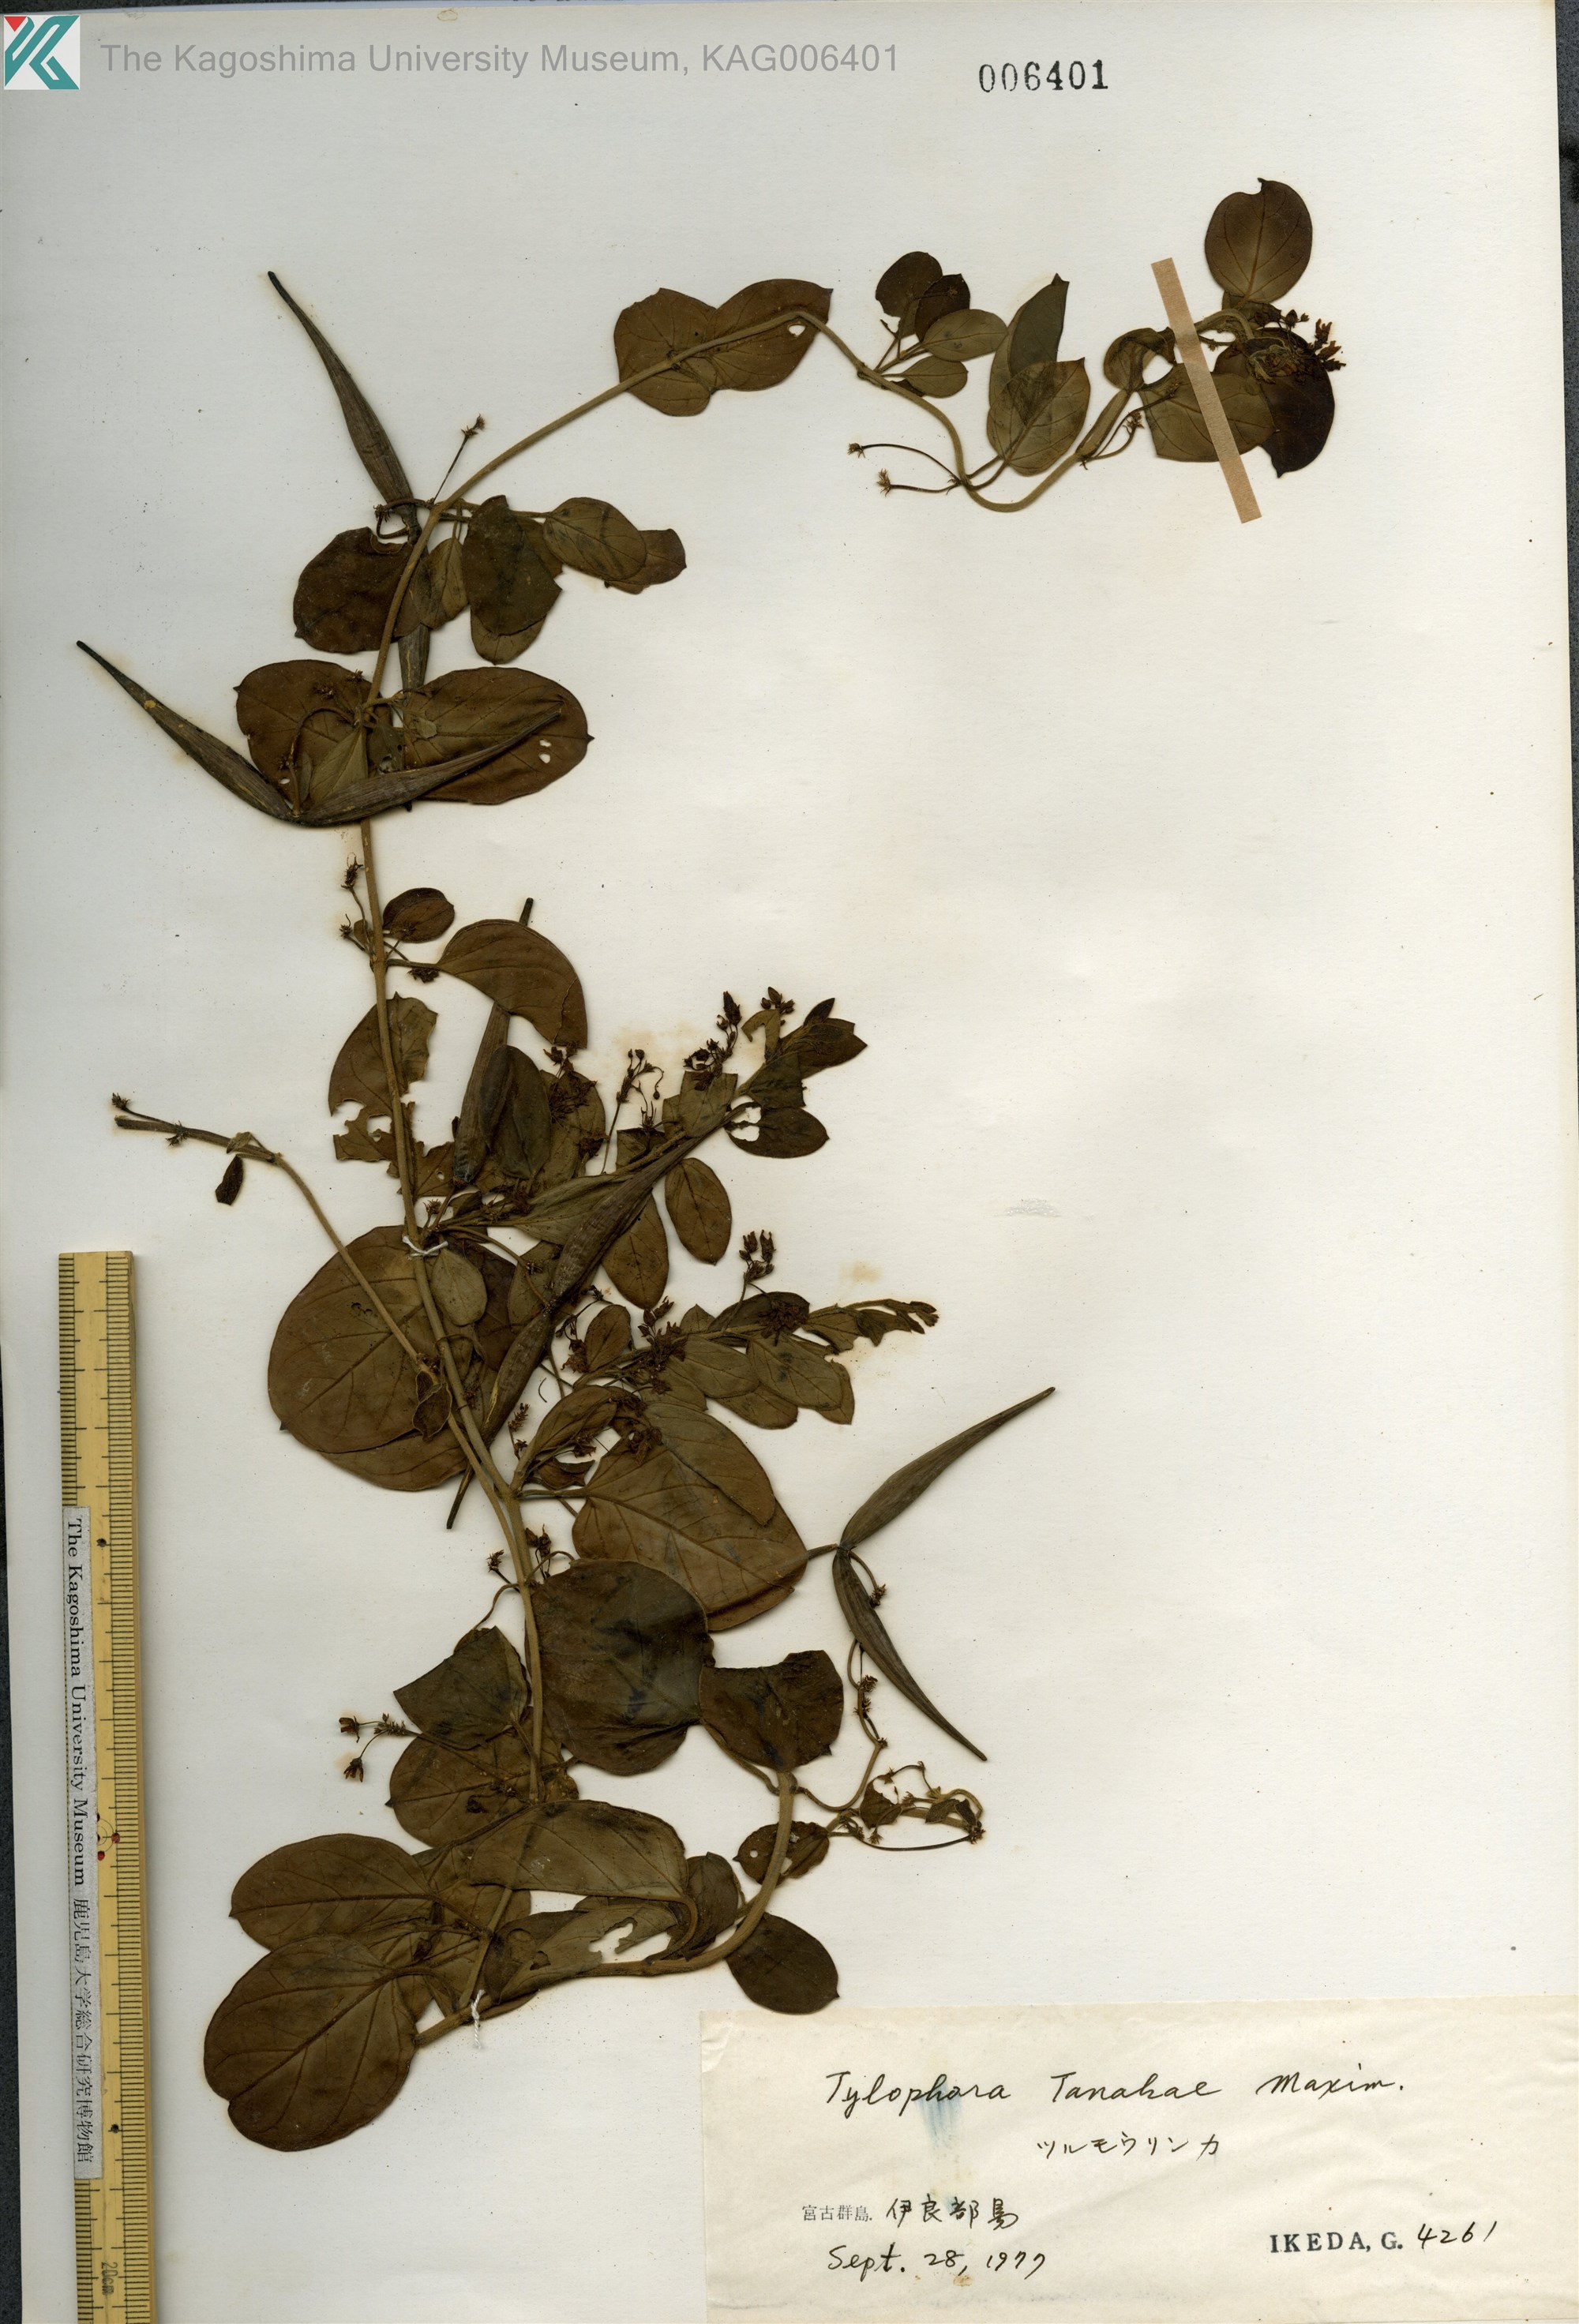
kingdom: Plantae
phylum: Tracheophyta
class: Magnoliopsida
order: Gentianales
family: Apocynaceae
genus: Vincetoxicum
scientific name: Vincetoxicum Tylophora tanakae
